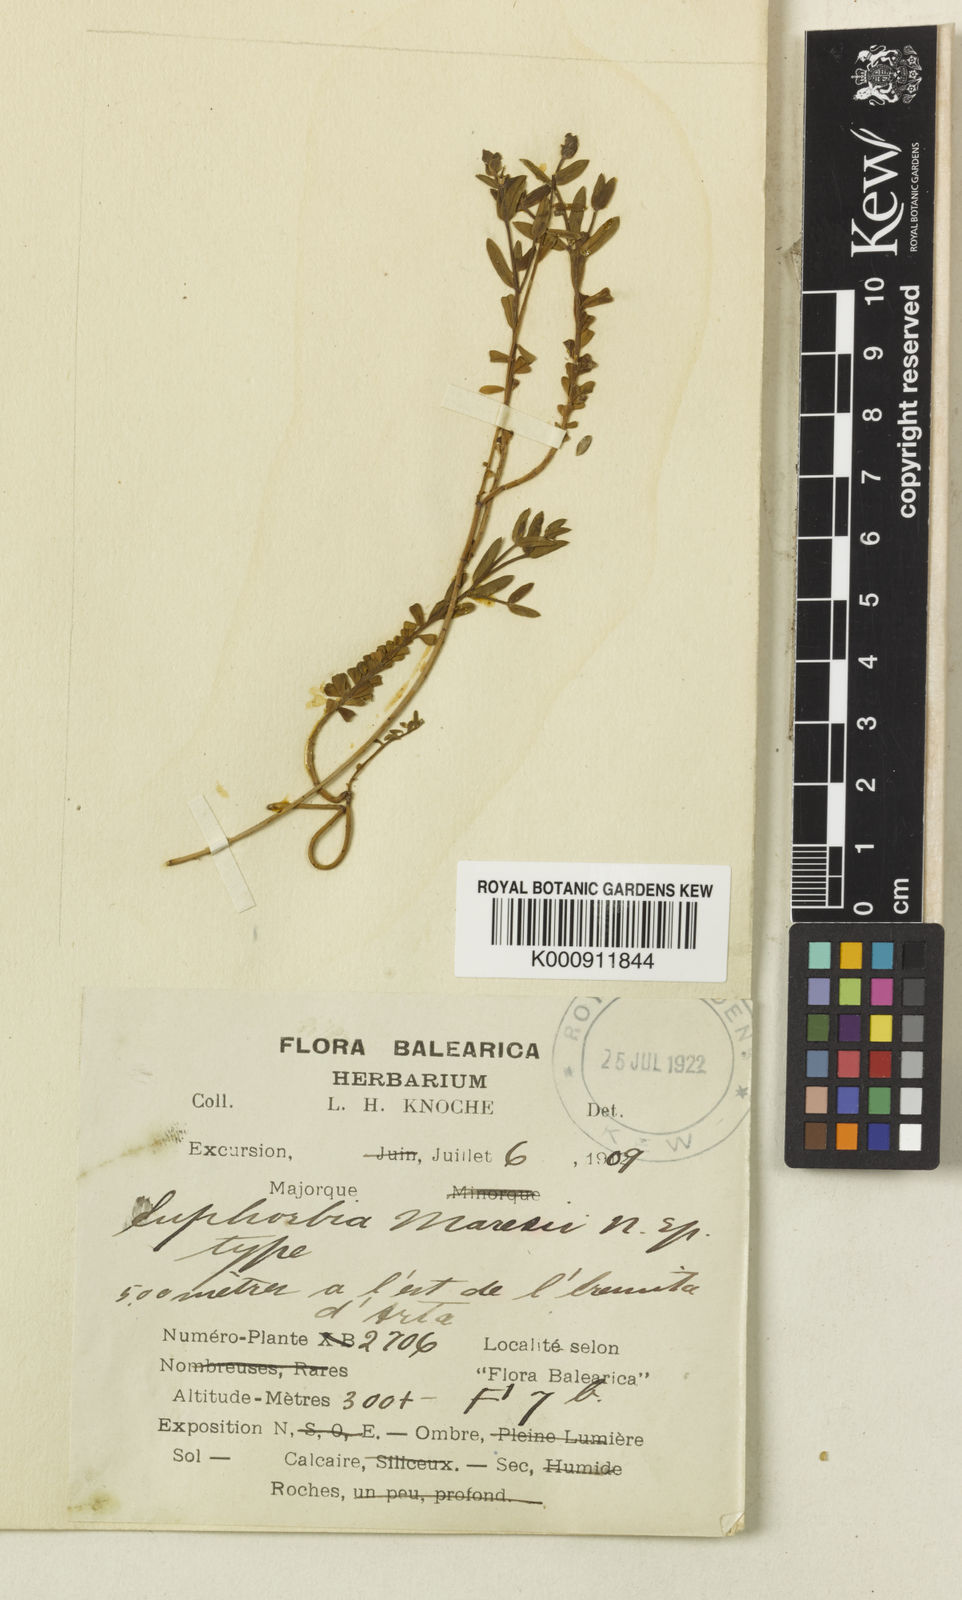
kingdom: Plantae
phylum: Tracheophyta
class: Magnoliopsida
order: Malpighiales
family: Euphorbiaceae
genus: Euphorbia
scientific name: Euphorbia maresii
